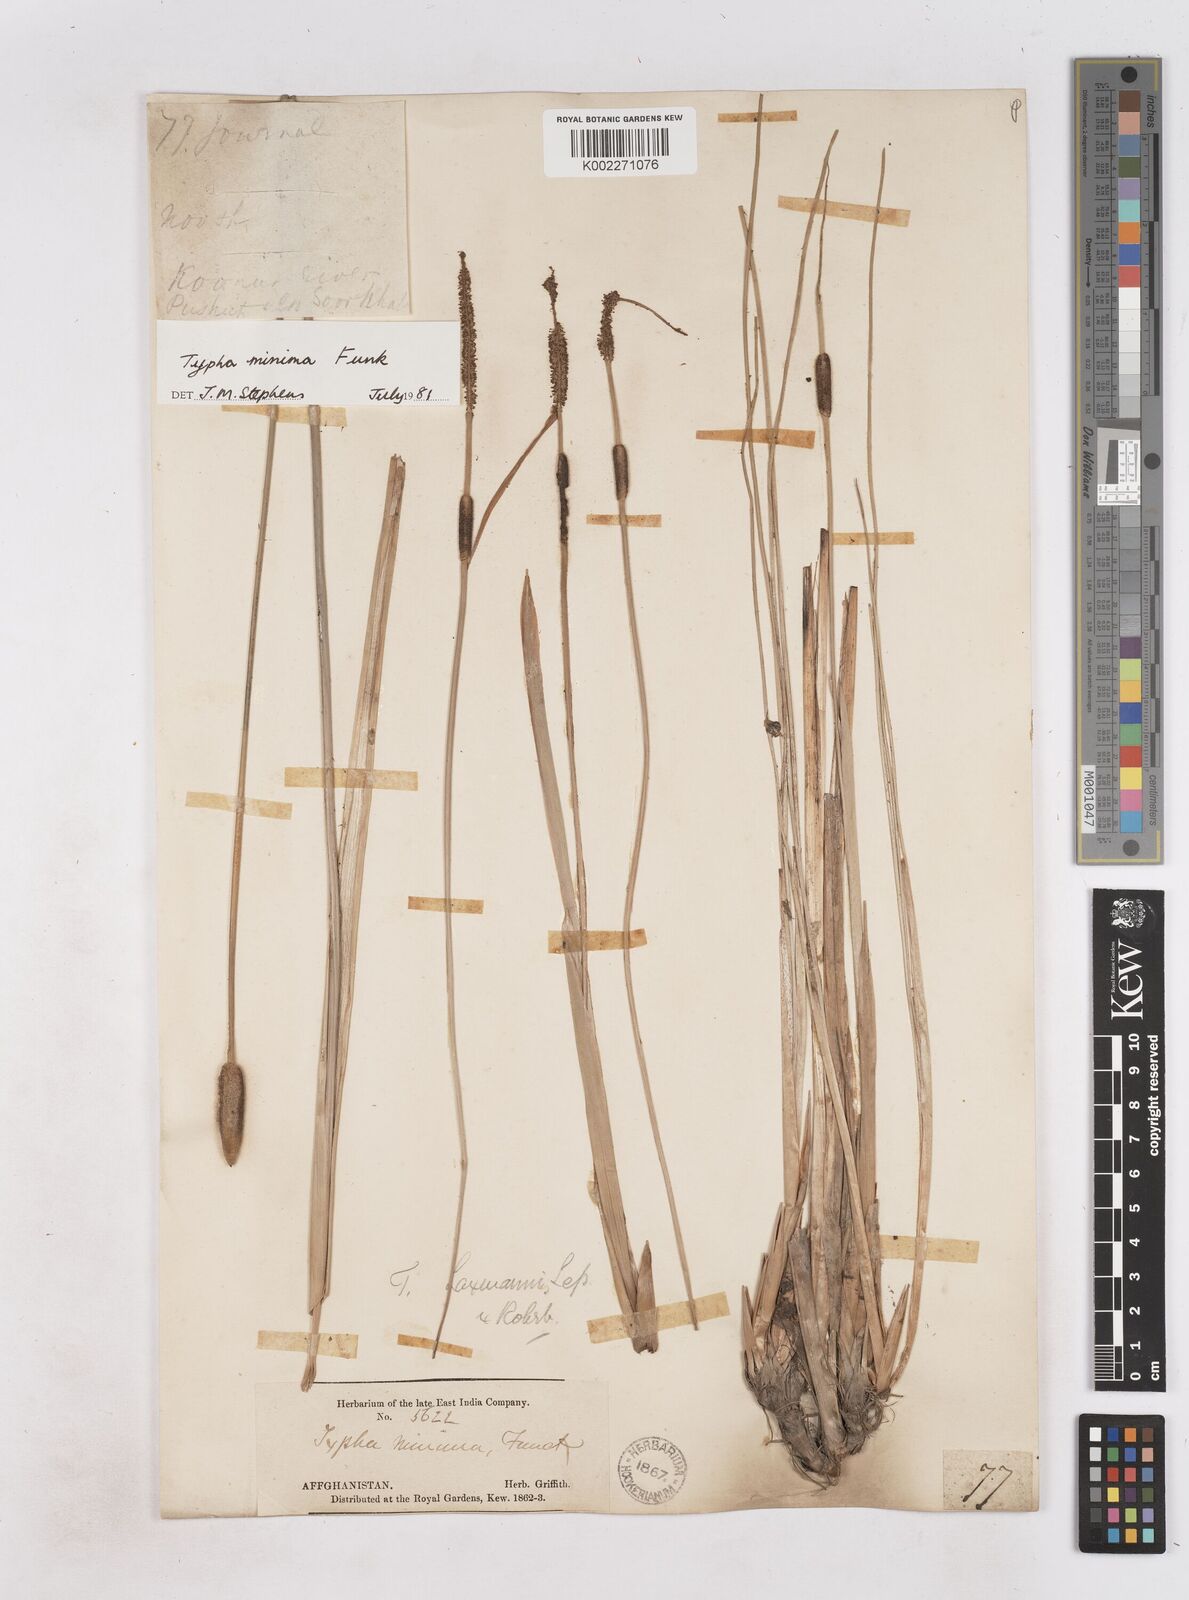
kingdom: Plantae
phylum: Tracheophyta
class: Liliopsida
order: Poales
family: Typhaceae
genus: Typha
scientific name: Typha minima
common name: Dwarf bulrush
